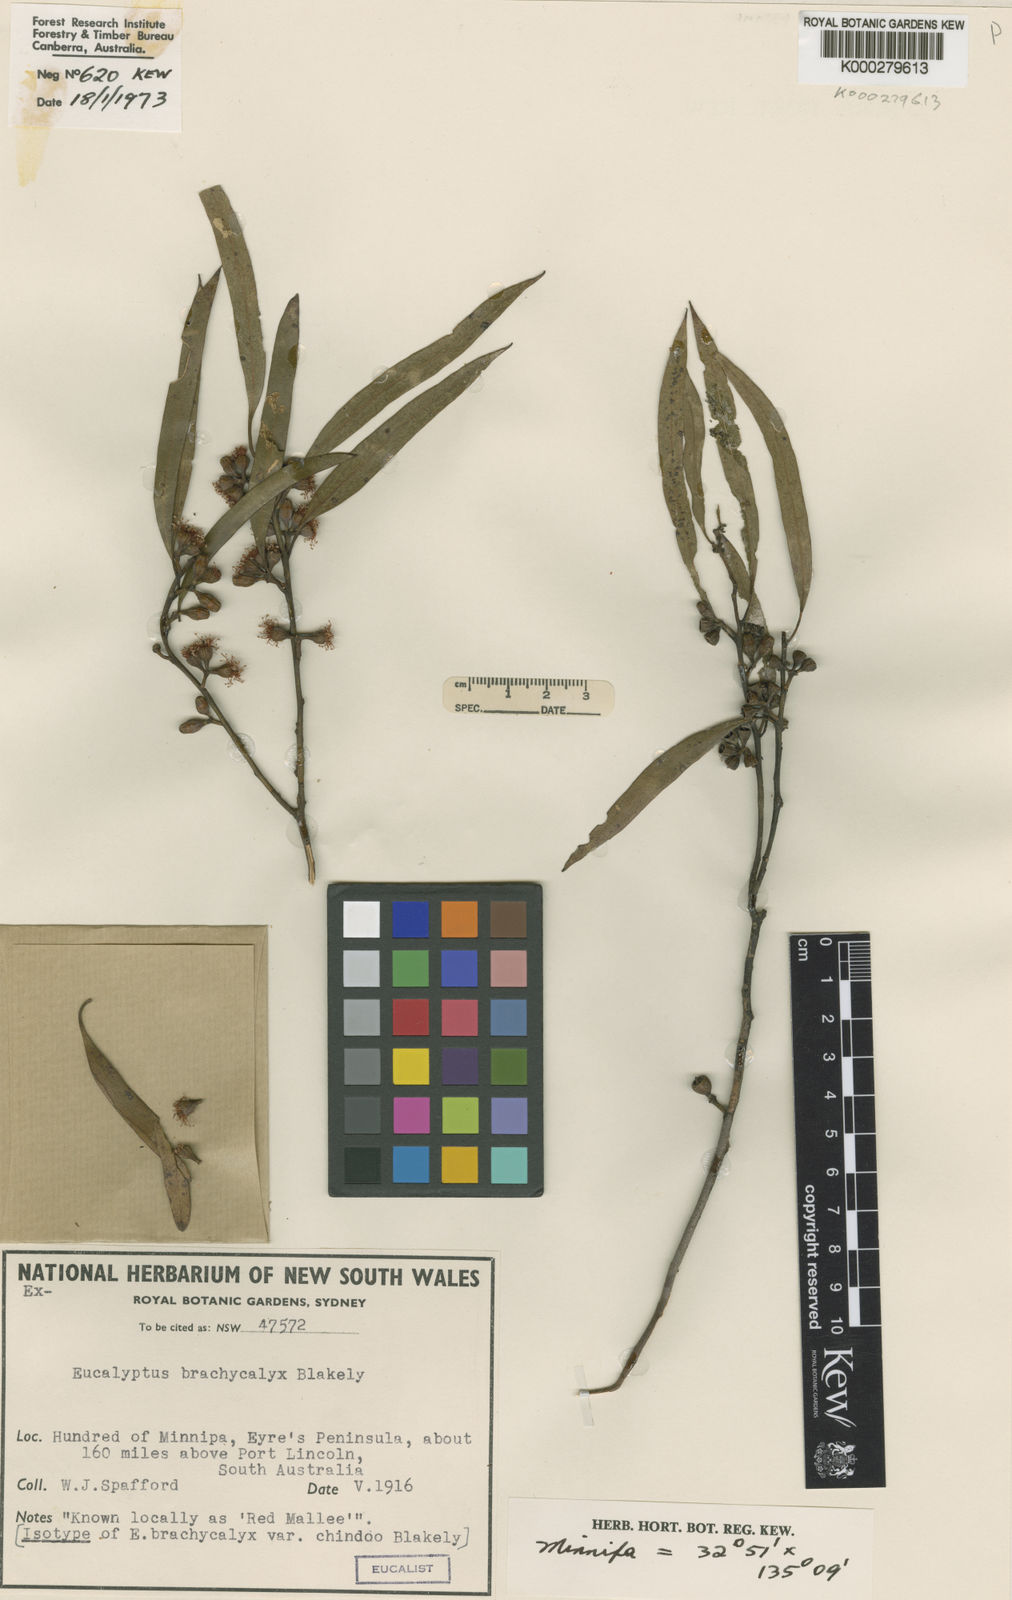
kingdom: Plantae
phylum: Tracheophyta
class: Magnoliopsida
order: Myrtales
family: Myrtaceae
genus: Eucalyptus
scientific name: Eucalyptus brachycalyx
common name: Chindoo mallee
